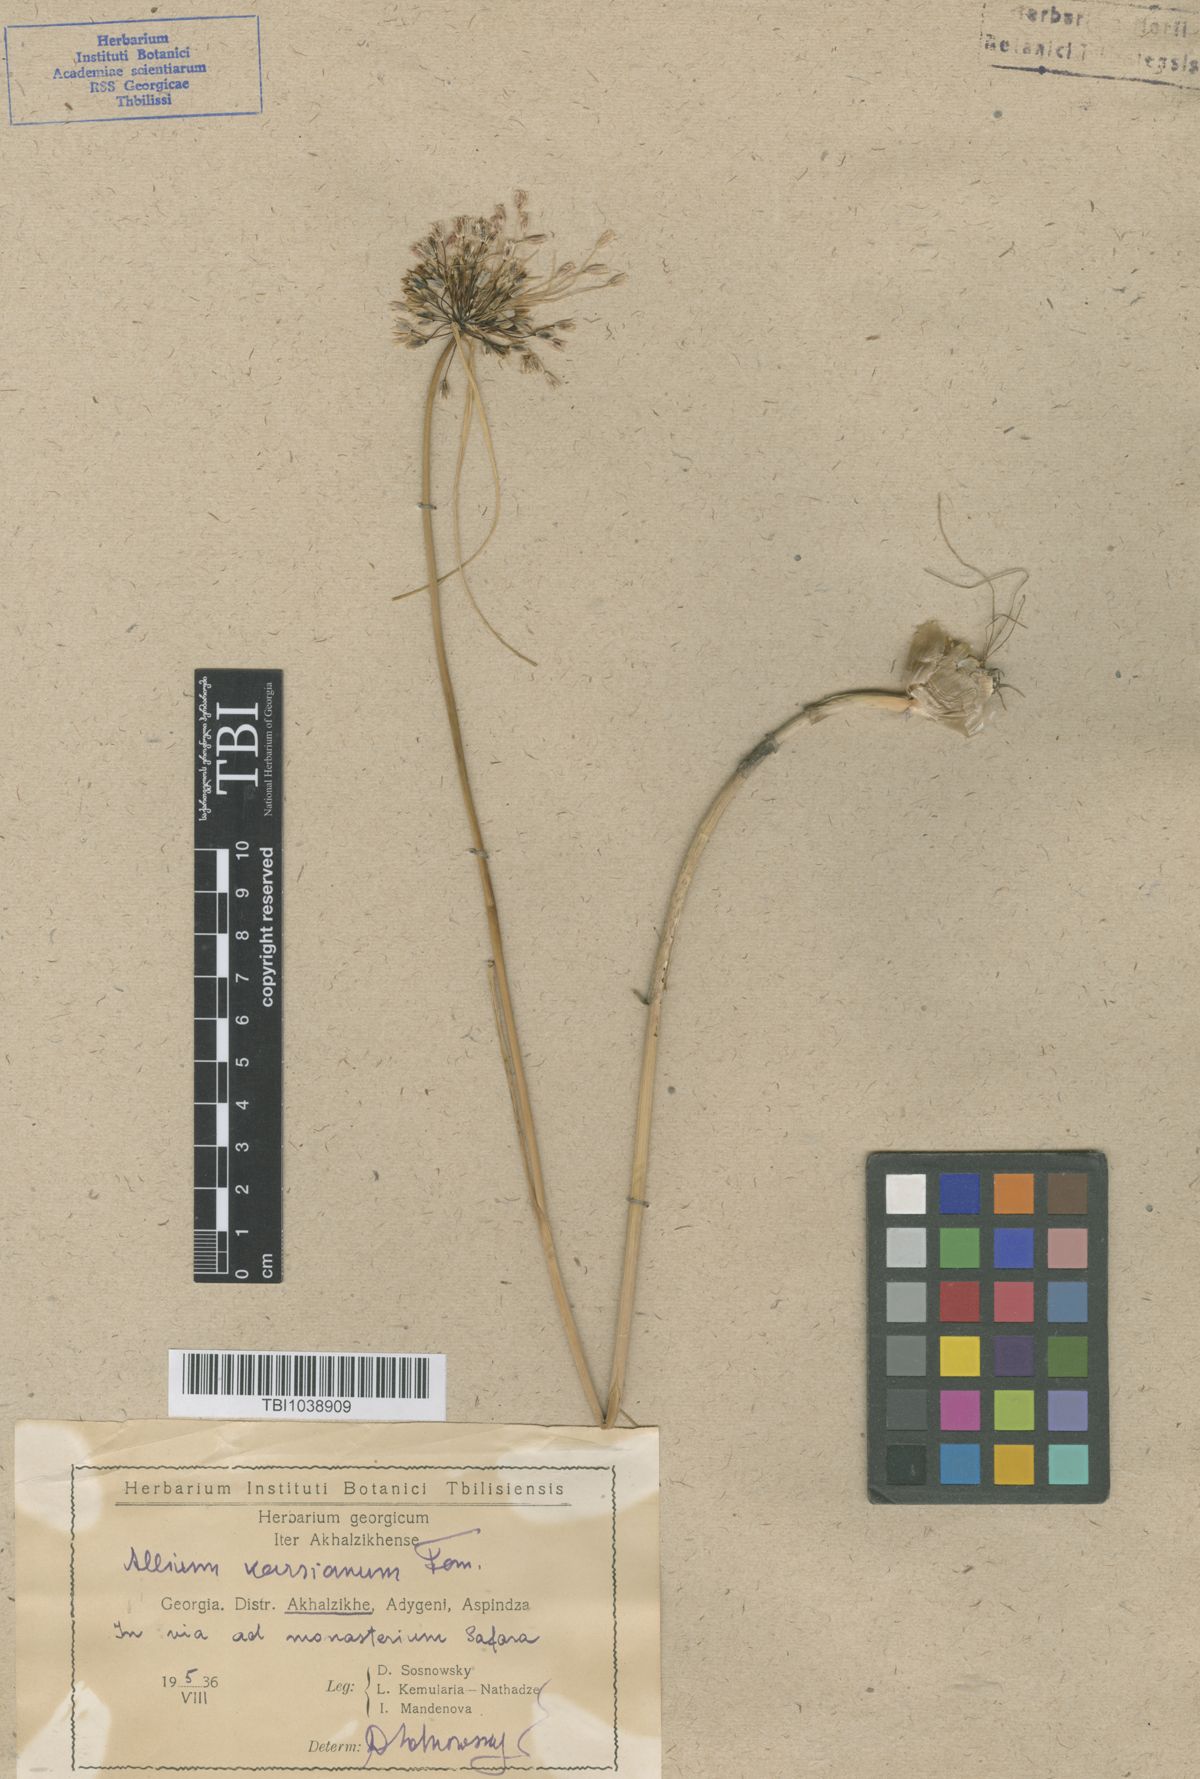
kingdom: Plantae
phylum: Tracheophyta
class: Liliopsida
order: Asparagales
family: Amaryllidaceae
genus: Allium
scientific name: Allium paniculatum
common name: Pale garlic
